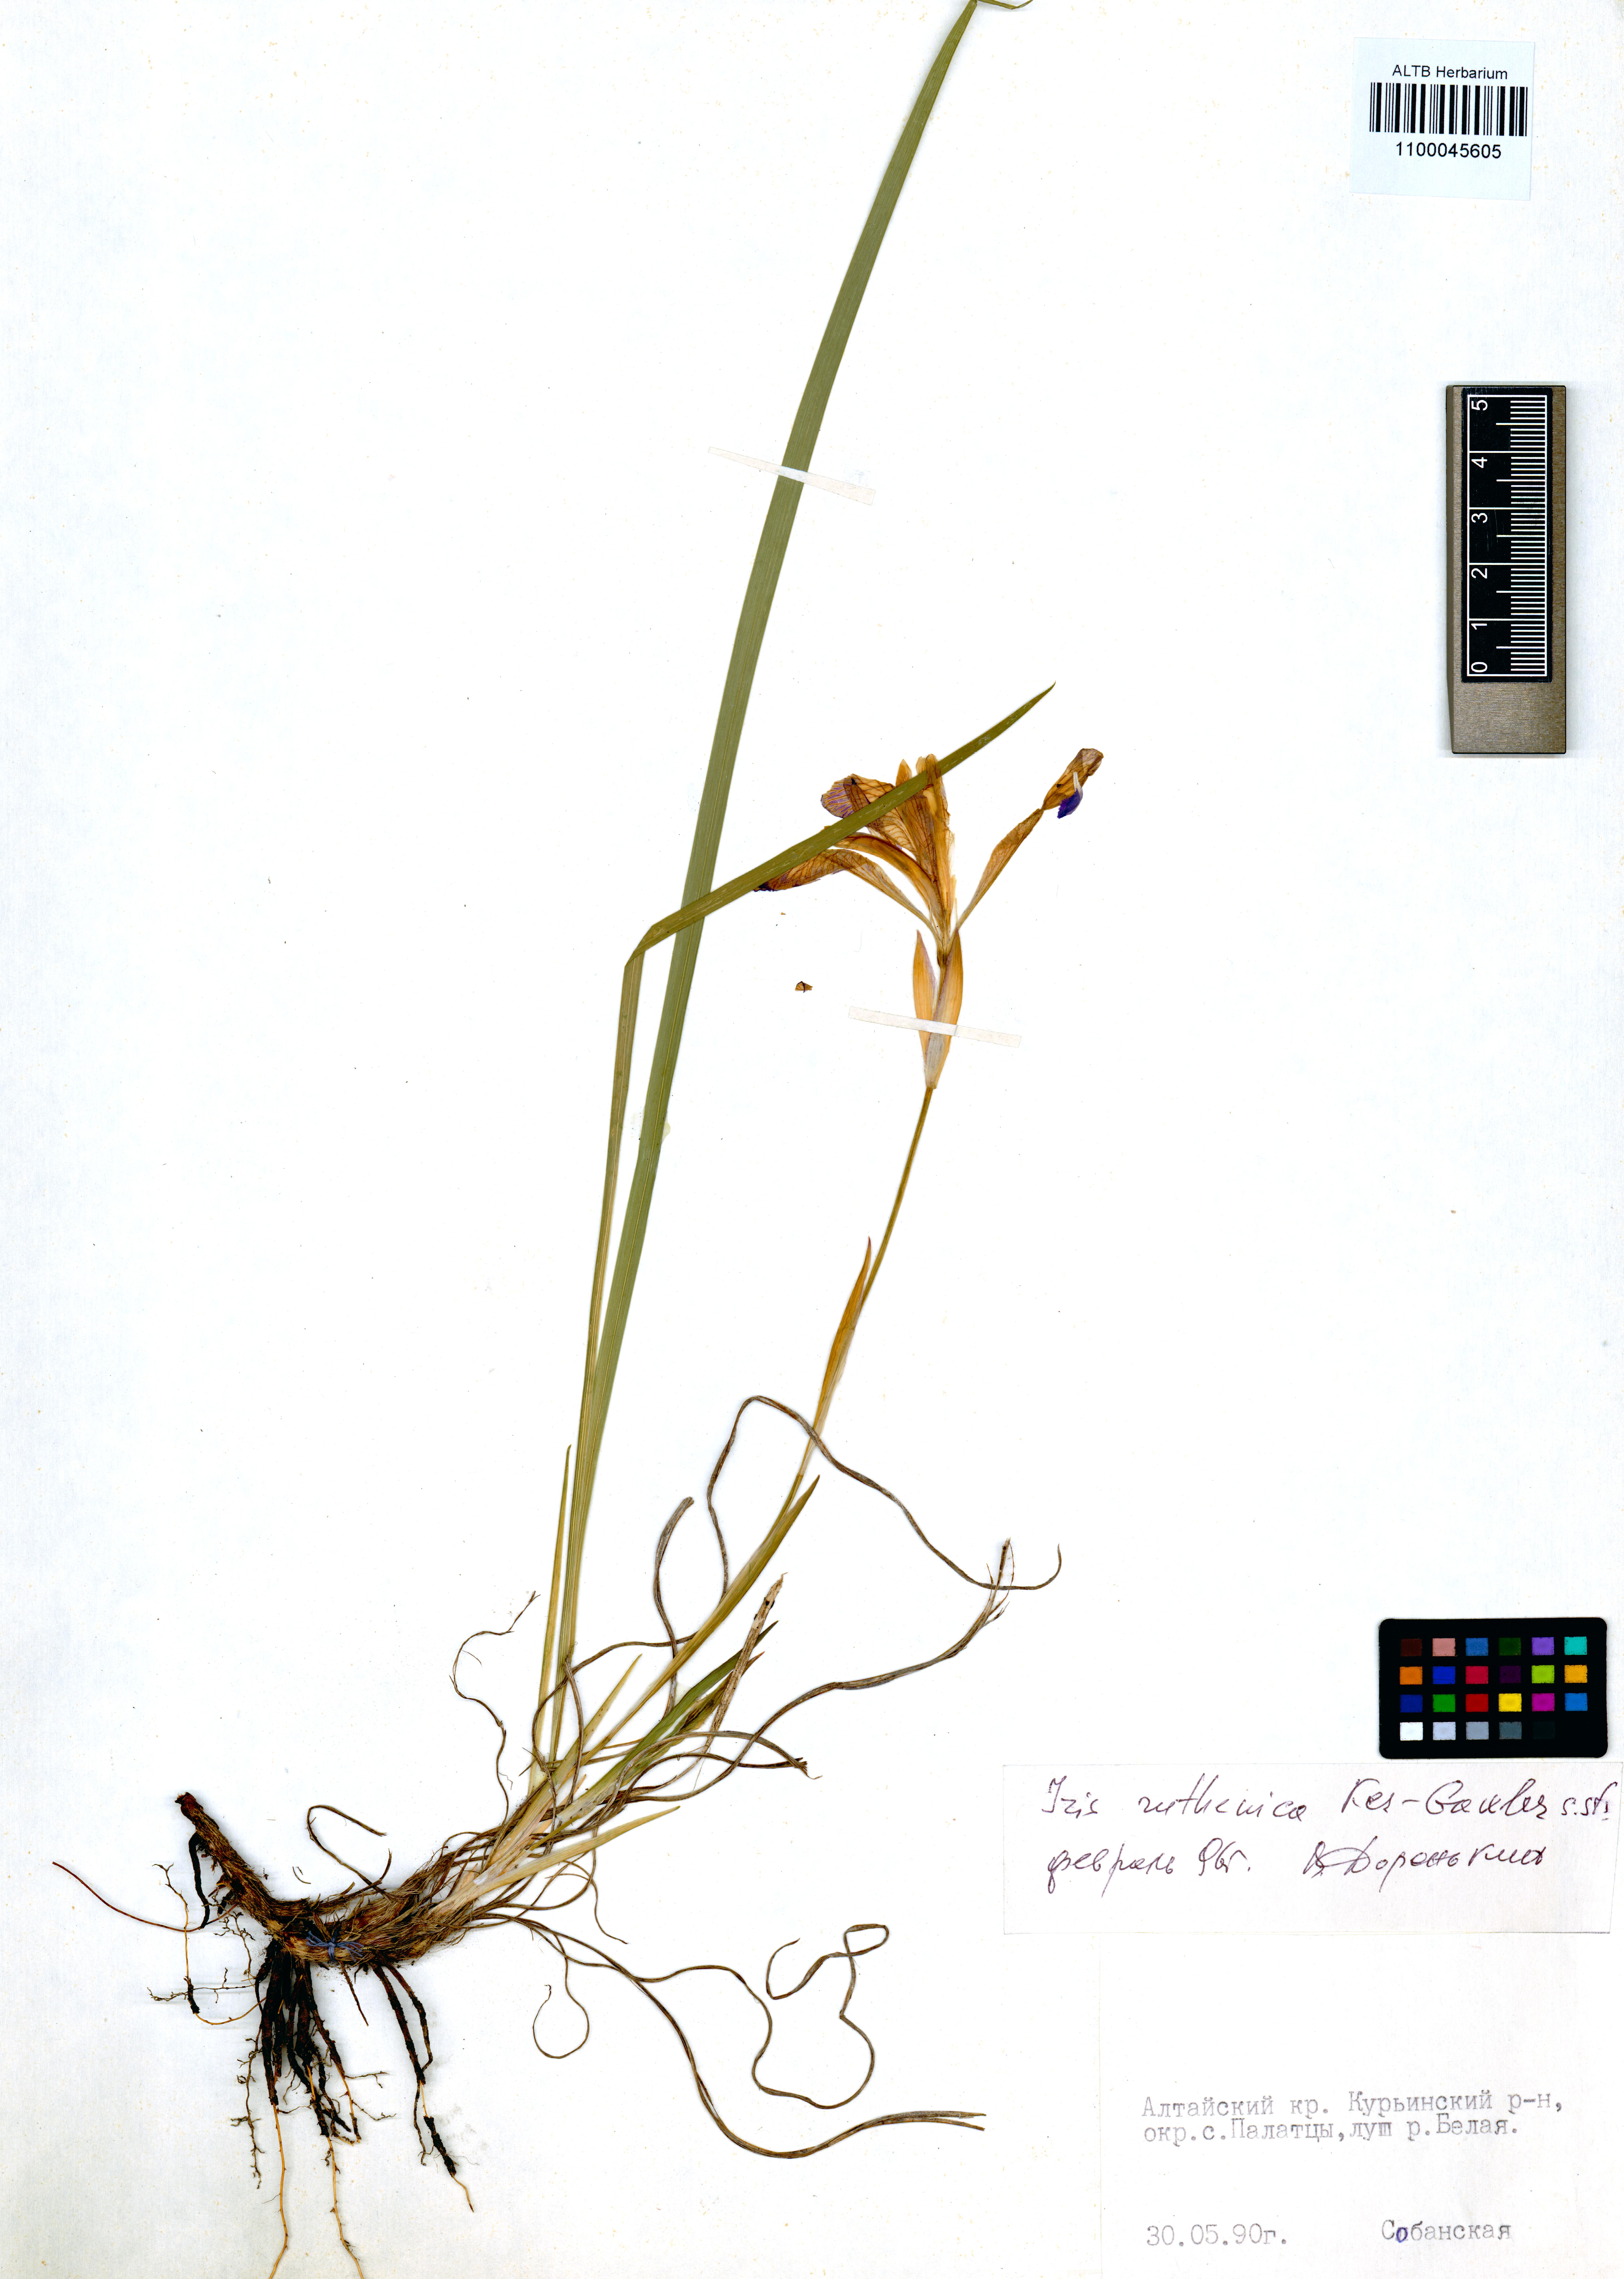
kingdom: Plantae
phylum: Tracheophyta
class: Liliopsida
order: Asparagales
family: Iridaceae
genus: Iris
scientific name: Iris ruthenica
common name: Purple-bract iris
